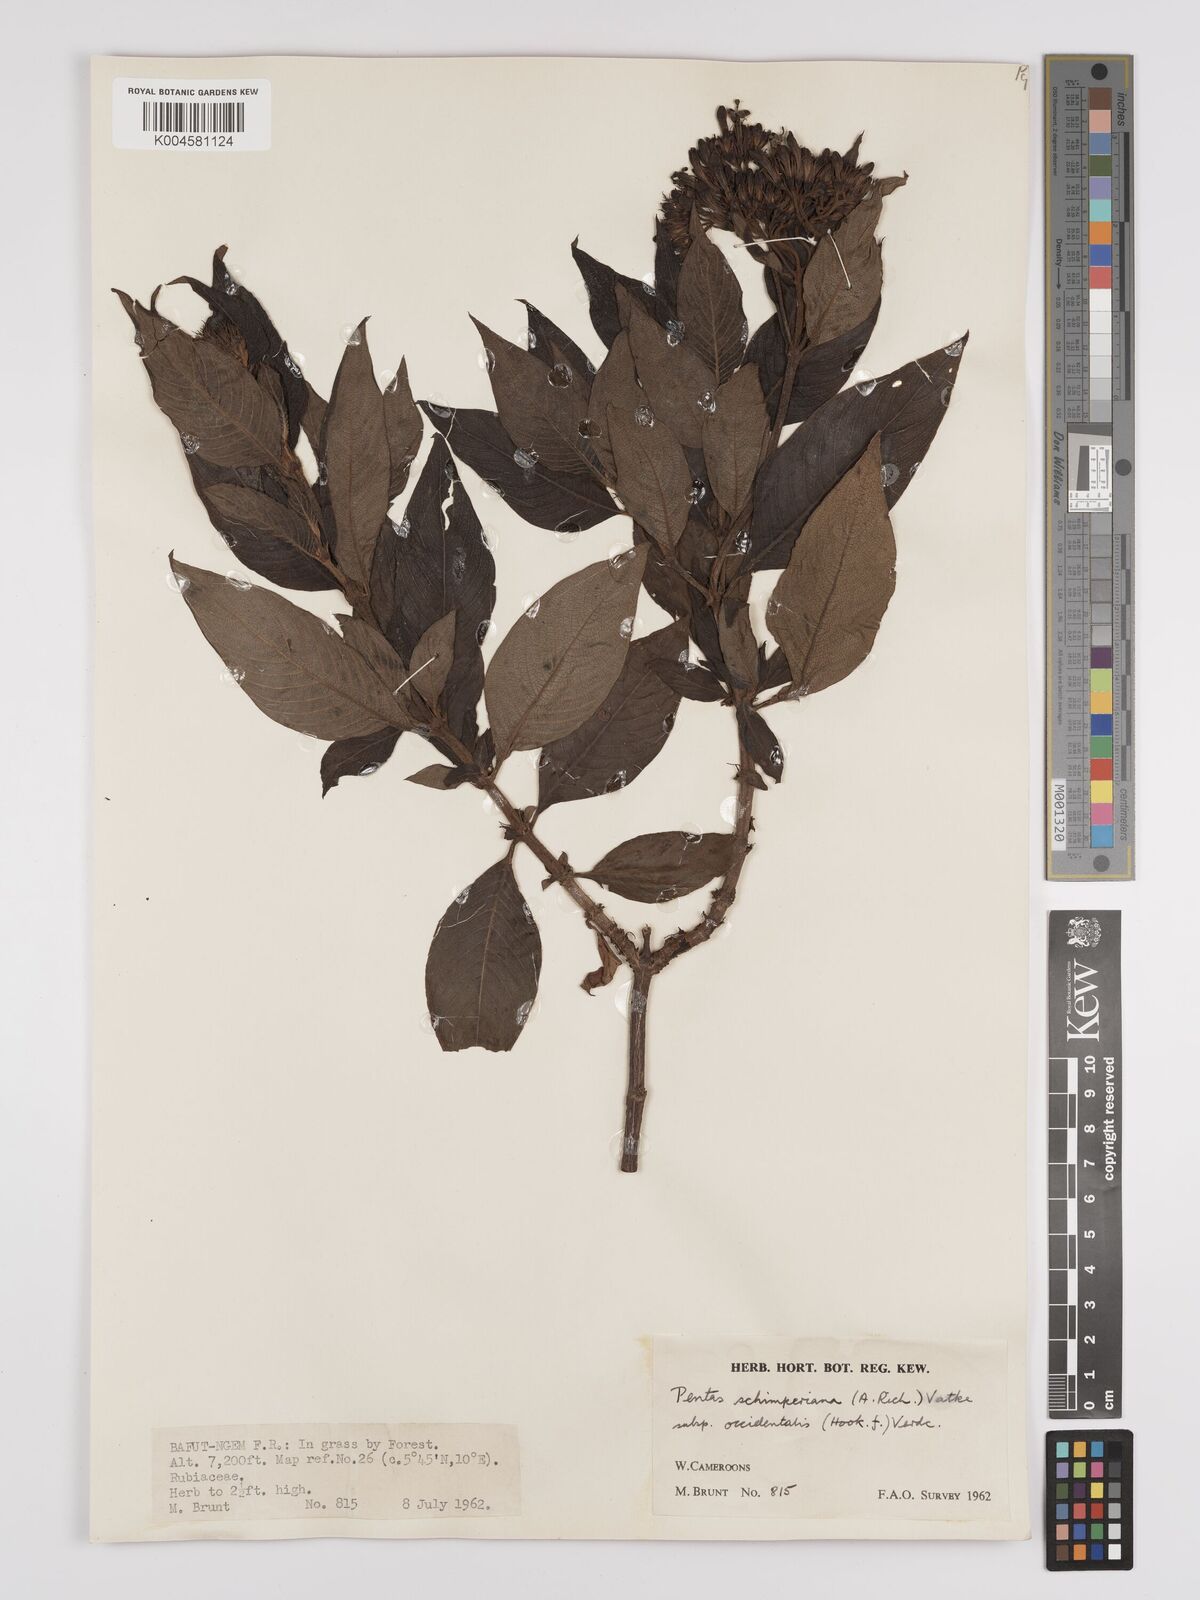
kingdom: Plantae
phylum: Tracheophyta
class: Magnoliopsida
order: Gentianales
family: Rubiaceae
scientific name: Rubiaceae
